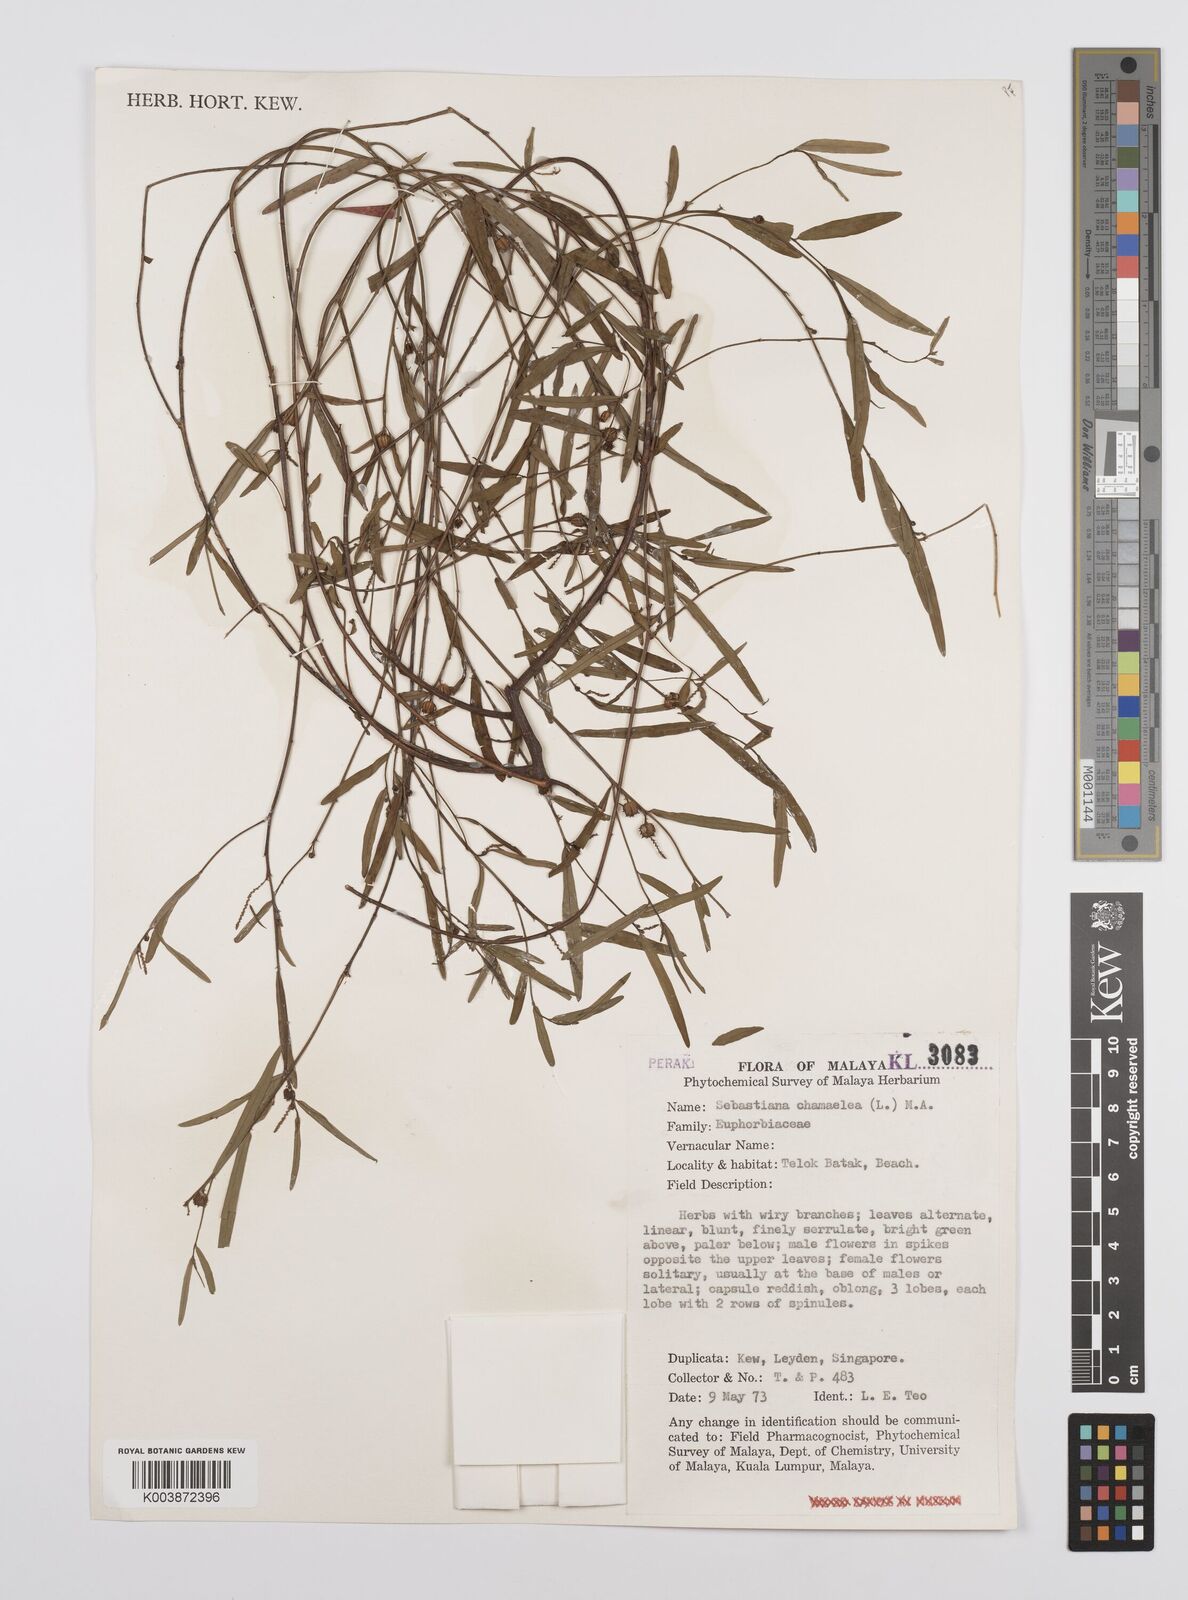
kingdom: Plantae
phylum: Tracheophyta
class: Magnoliopsida
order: Malpighiales
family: Euphorbiaceae
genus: Microstachys
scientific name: Microstachys chamaelea
